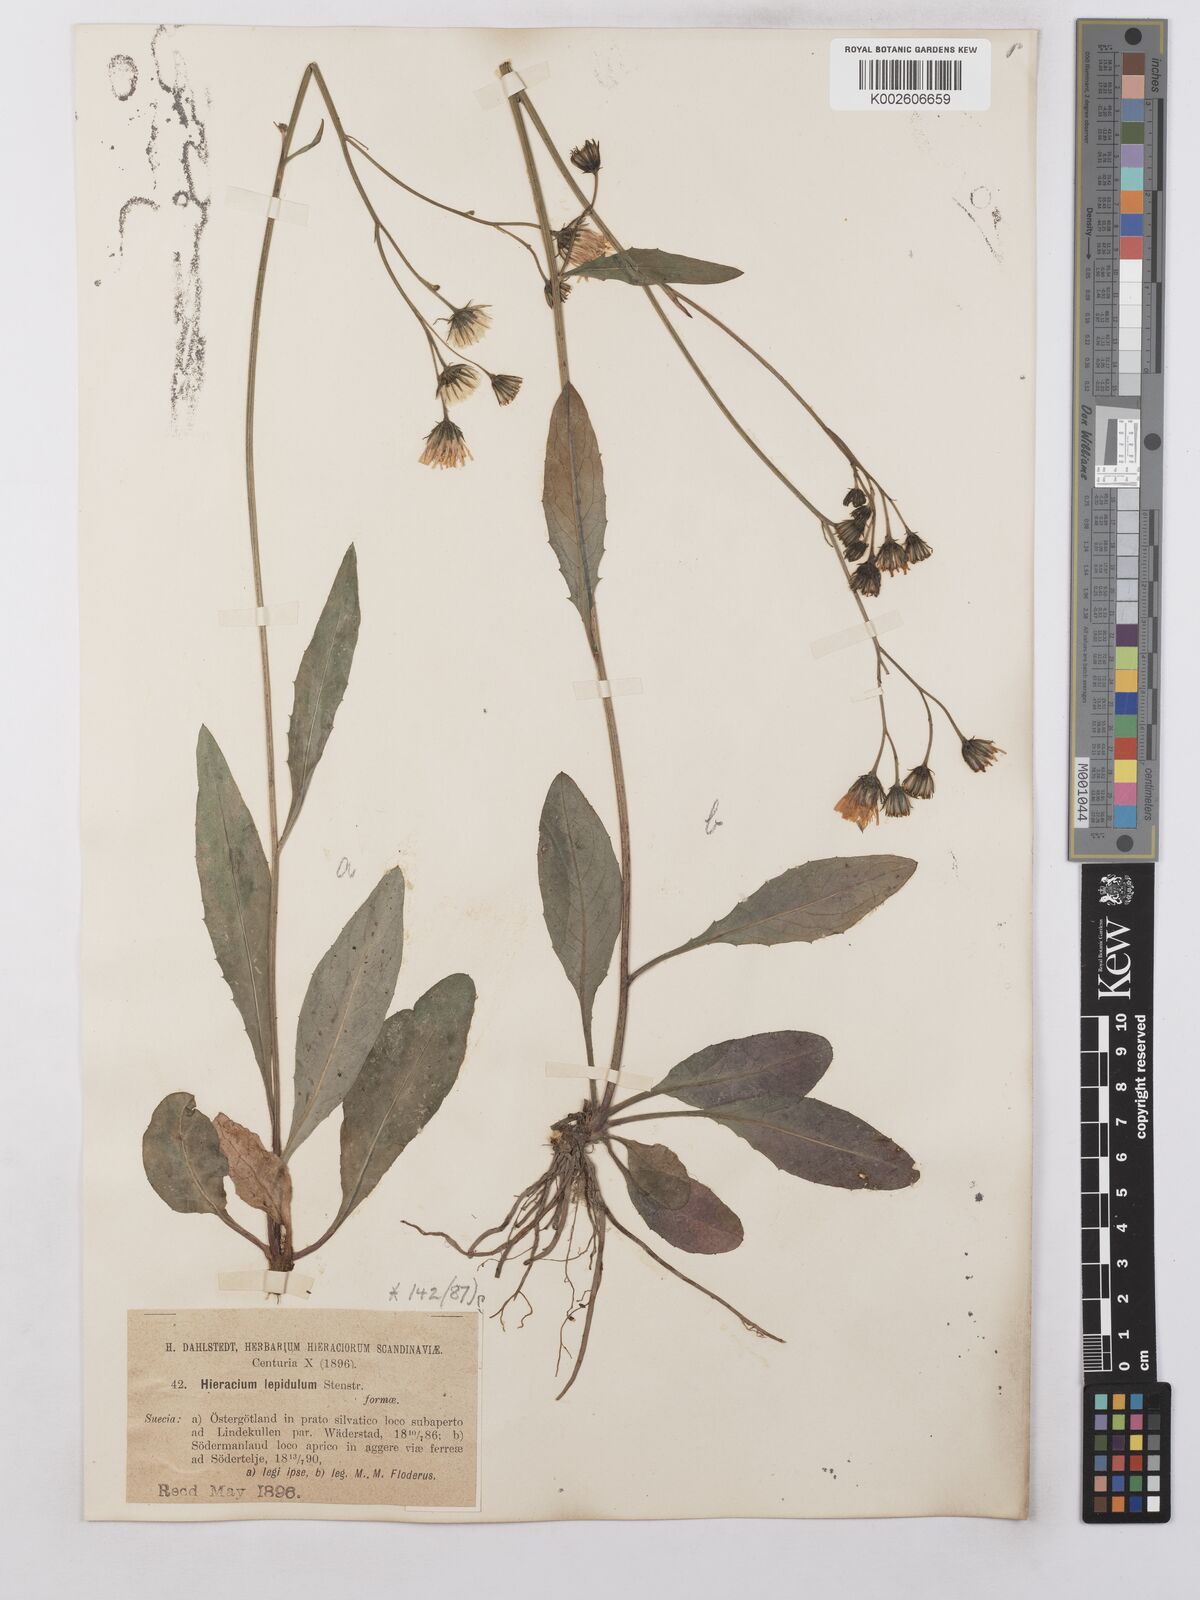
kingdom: Plantae
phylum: Tracheophyta
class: Magnoliopsida
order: Asterales
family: Asteraceae
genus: Hieracium
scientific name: Hieracium lepidulum
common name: Irregular-toothed hawkweed
